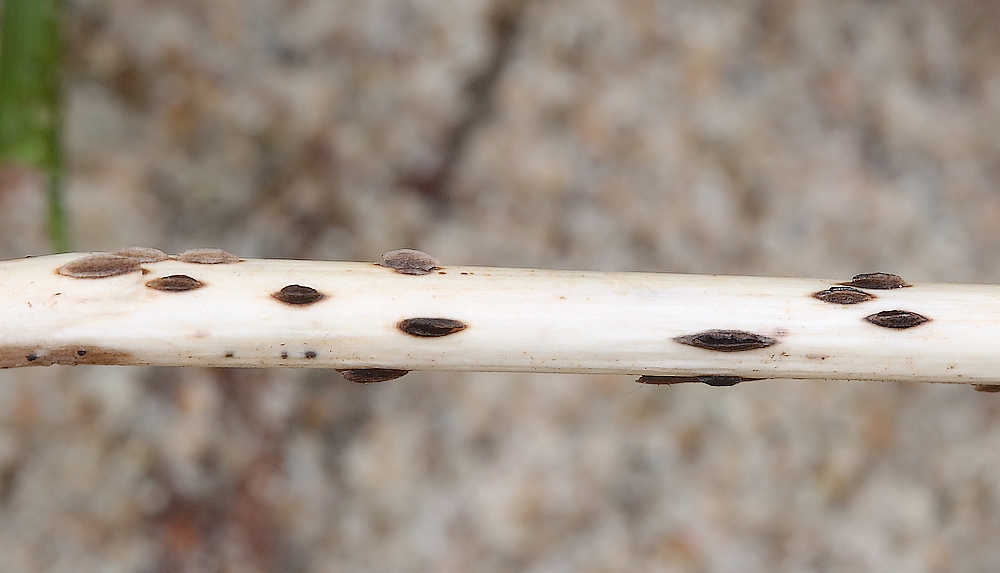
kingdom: Fungi
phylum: Ascomycota
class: Leotiomycetes
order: Helotiales
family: Dermateaceae
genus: Hysterostegiella
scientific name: Hysterostegiella valvata
